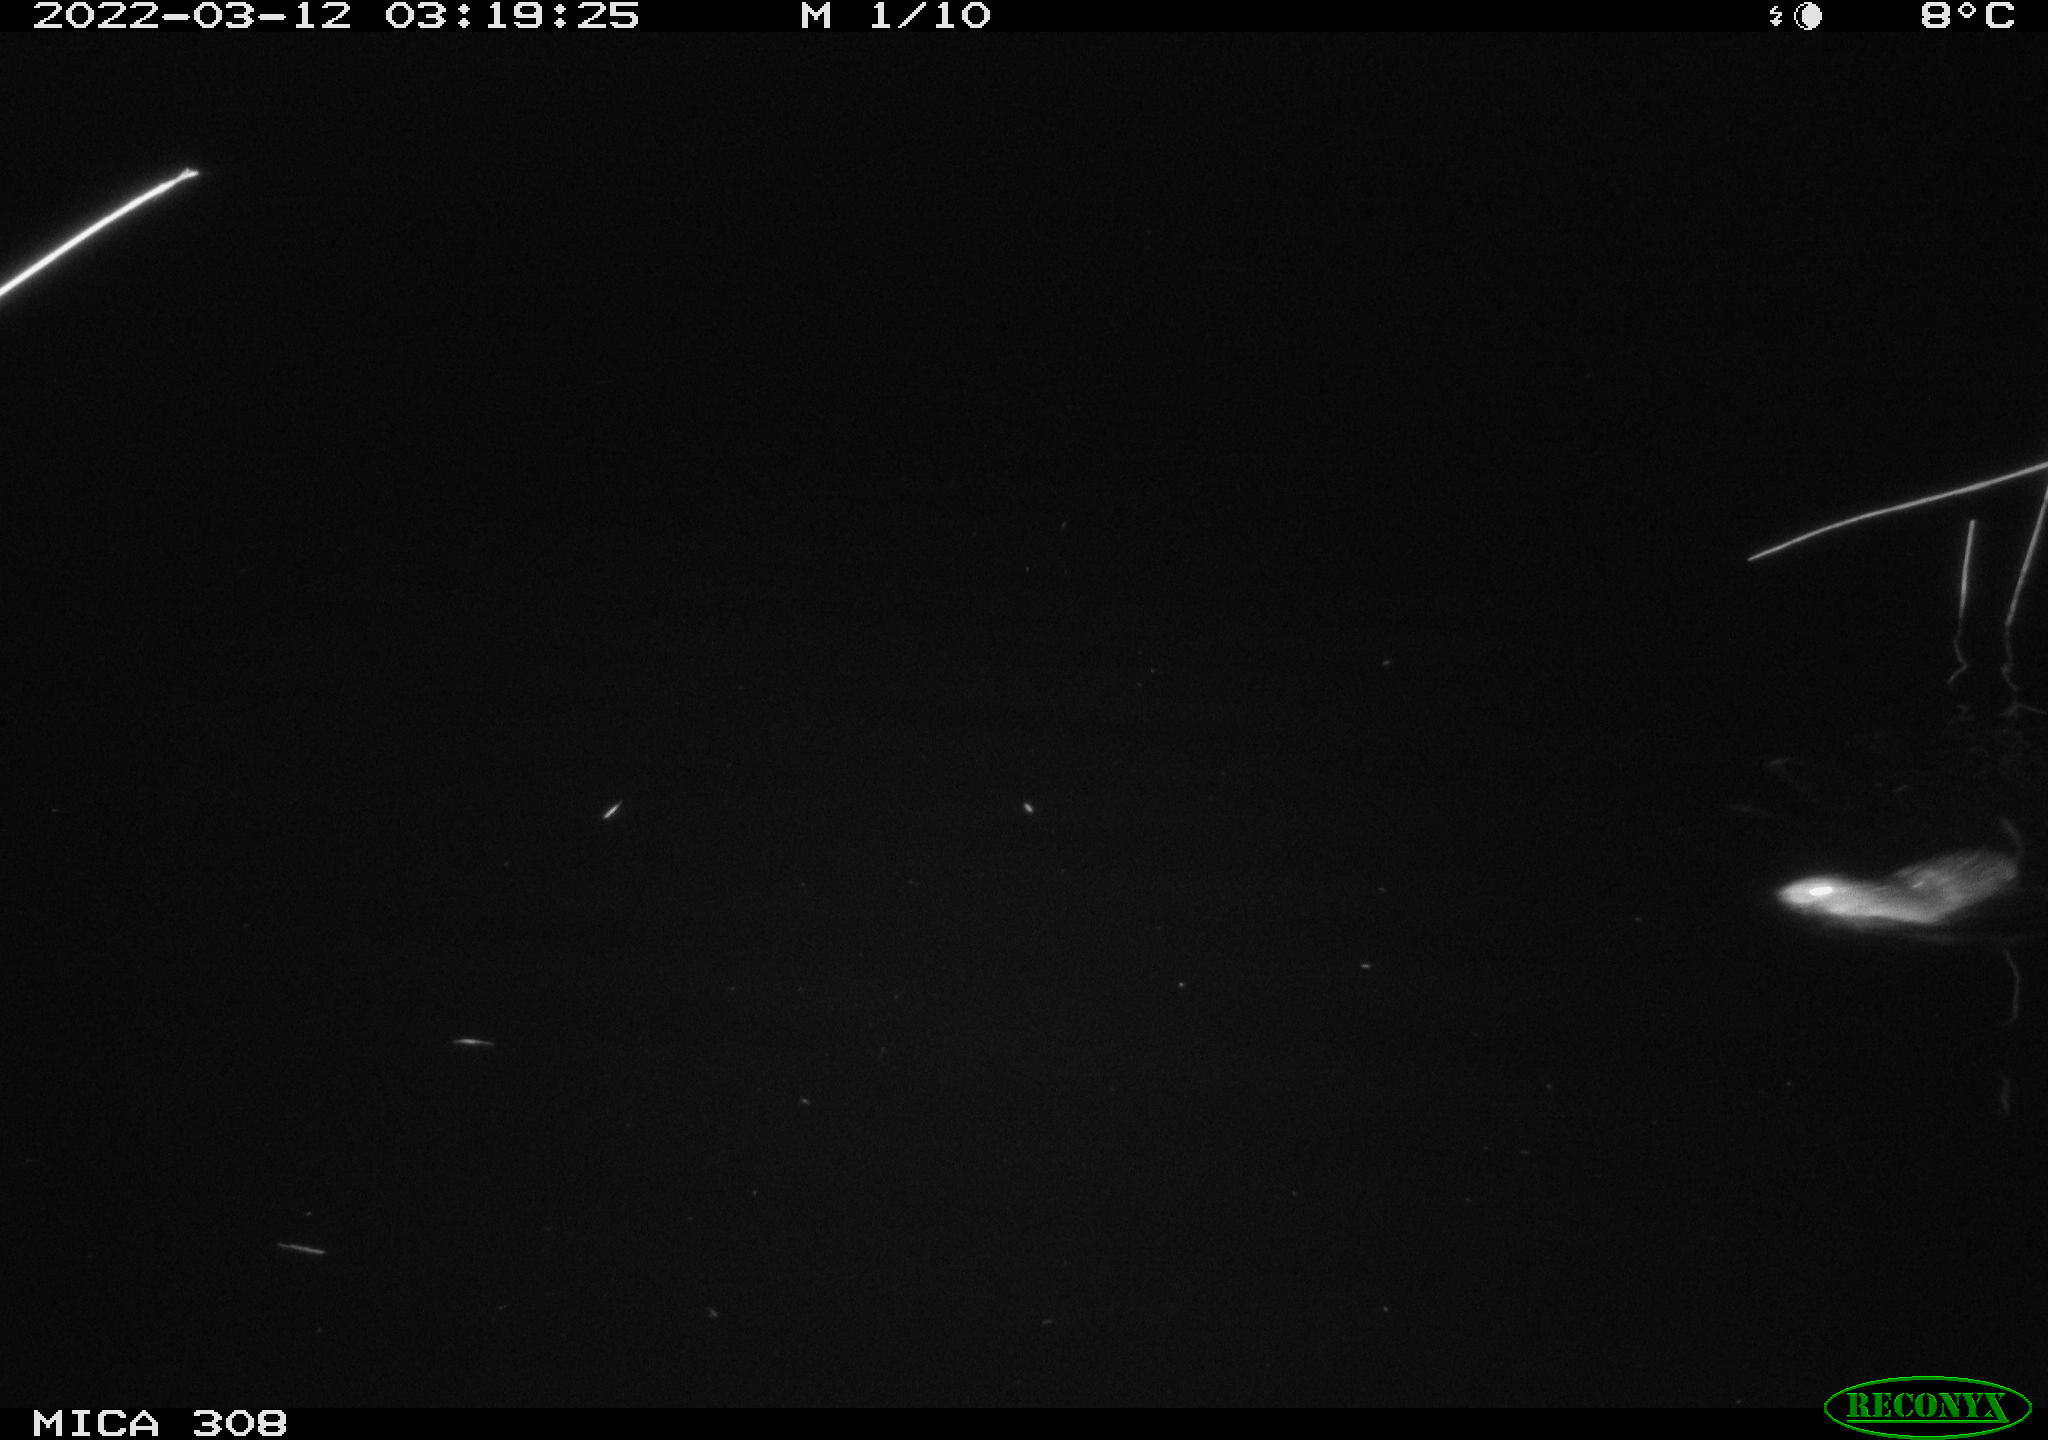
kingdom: Animalia
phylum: Chordata
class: Mammalia
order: Rodentia
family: Cricetidae
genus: Ondatra
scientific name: Ondatra zibethicus
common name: Muskrat
